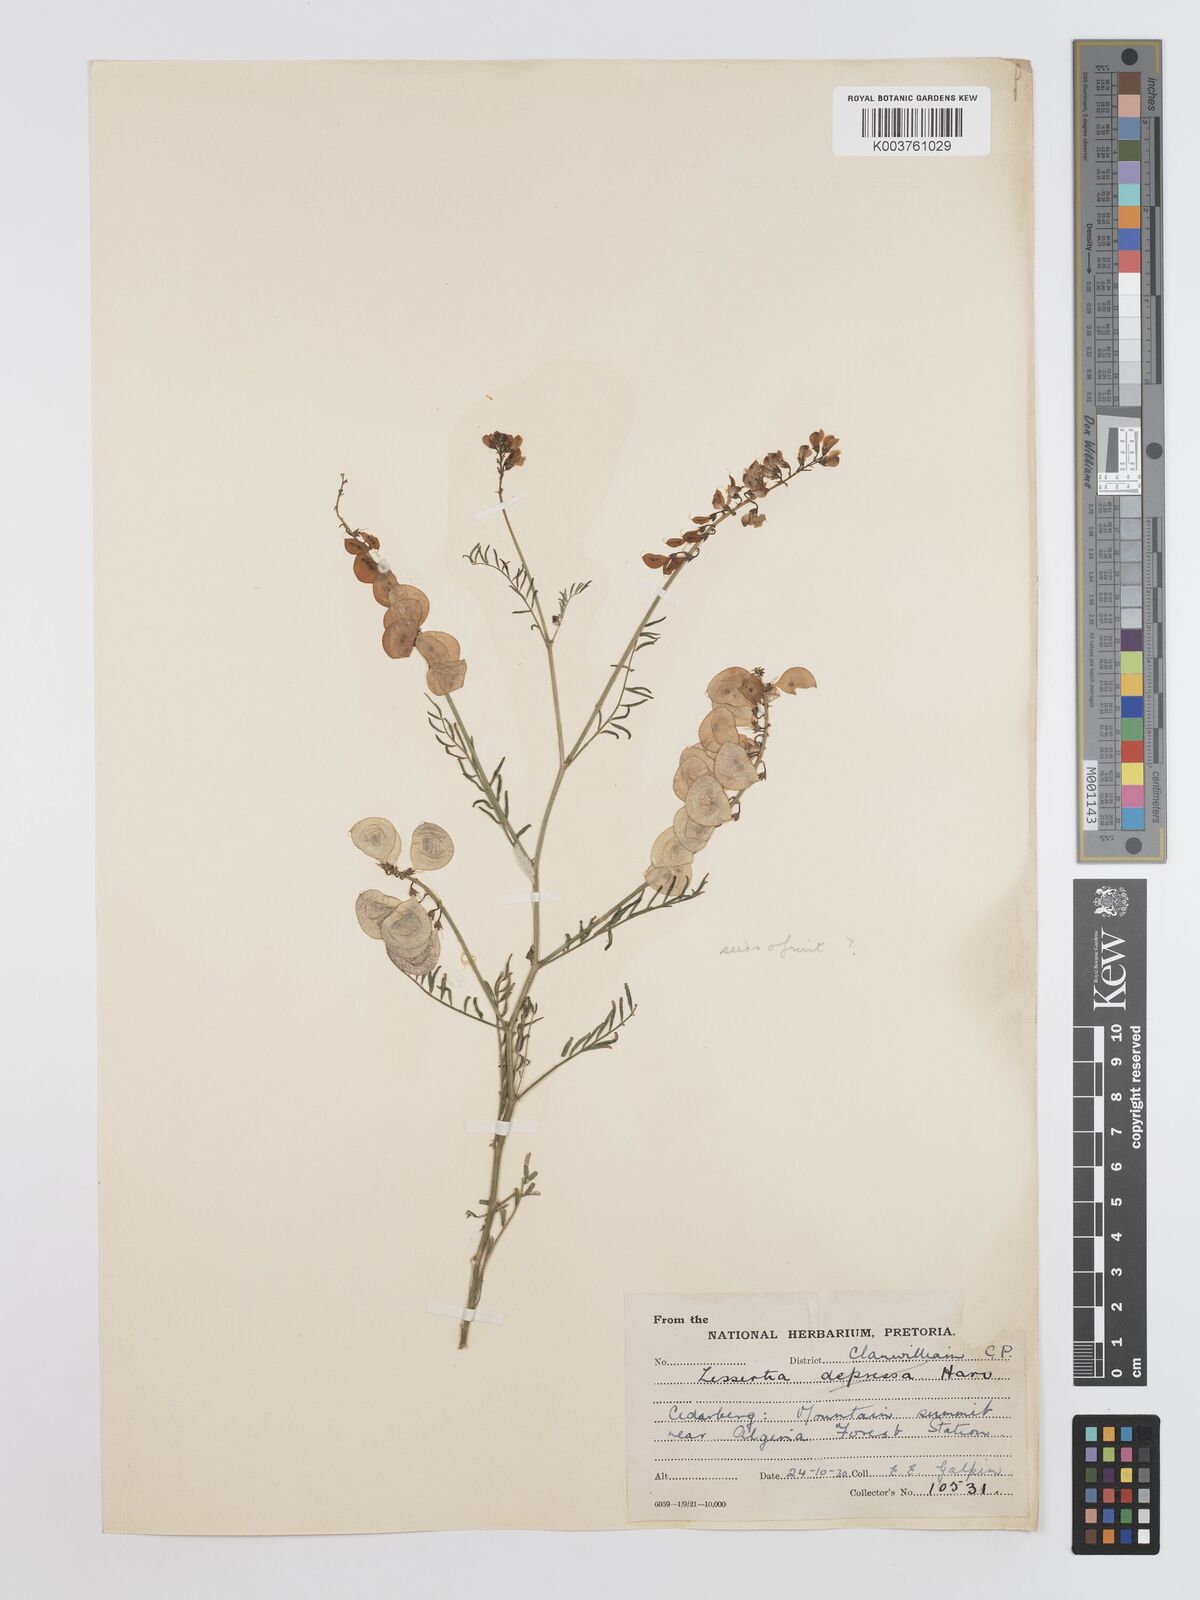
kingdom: Plantae
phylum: Tracheophyta
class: Magnoliopsida
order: Fabales
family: Fabaceae
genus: Lessertia
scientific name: Lessertia fruticosa
